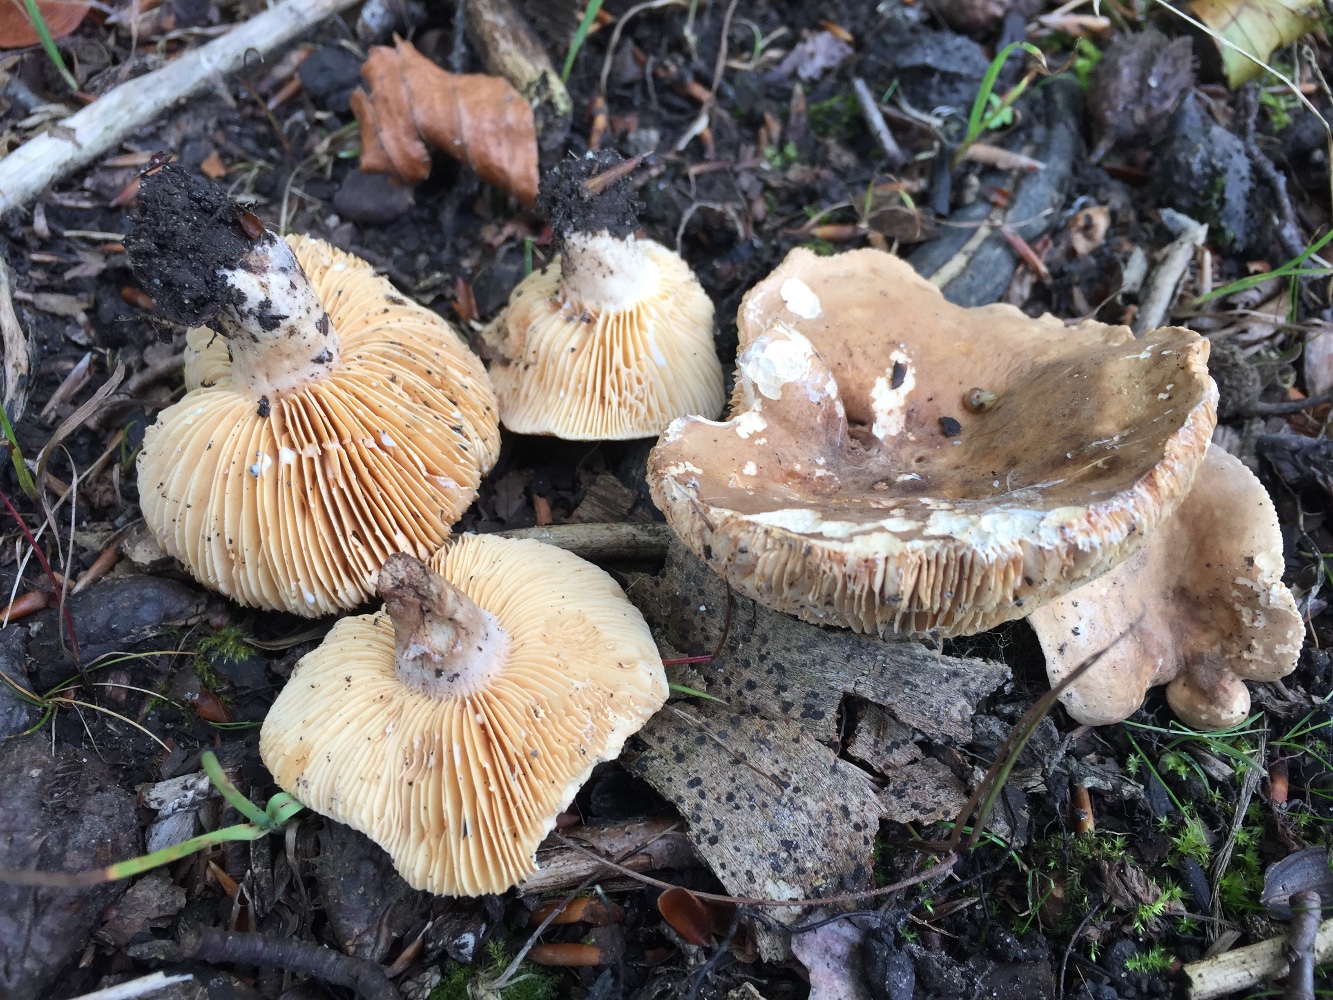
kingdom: Fungi
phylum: Basidiomycota
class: Agaricomycetes
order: Russulales
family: Russulaceae
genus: Lactarius
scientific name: Lactarius pterosporus
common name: vingesporet mælkehat
